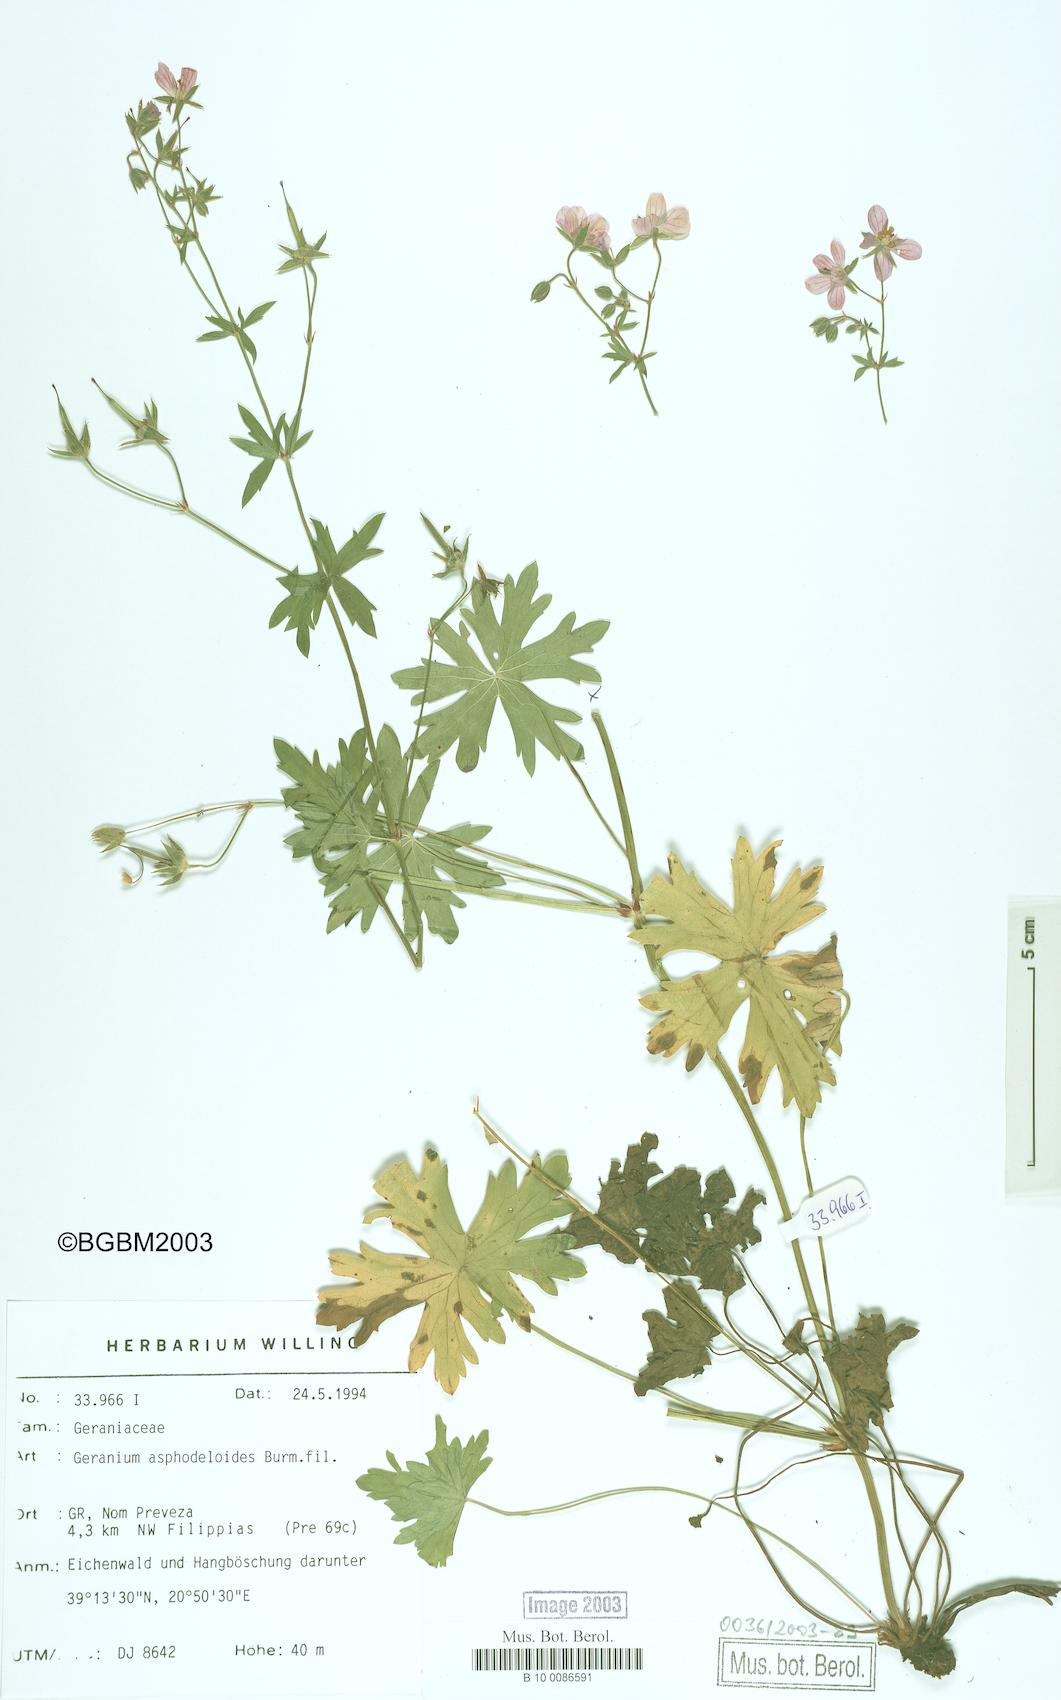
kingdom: Plantae
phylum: Tracheophyta
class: Magnoliopsida
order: Geraniales
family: Geraniaceae
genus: Geranium
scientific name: Geranium asphodeloides
